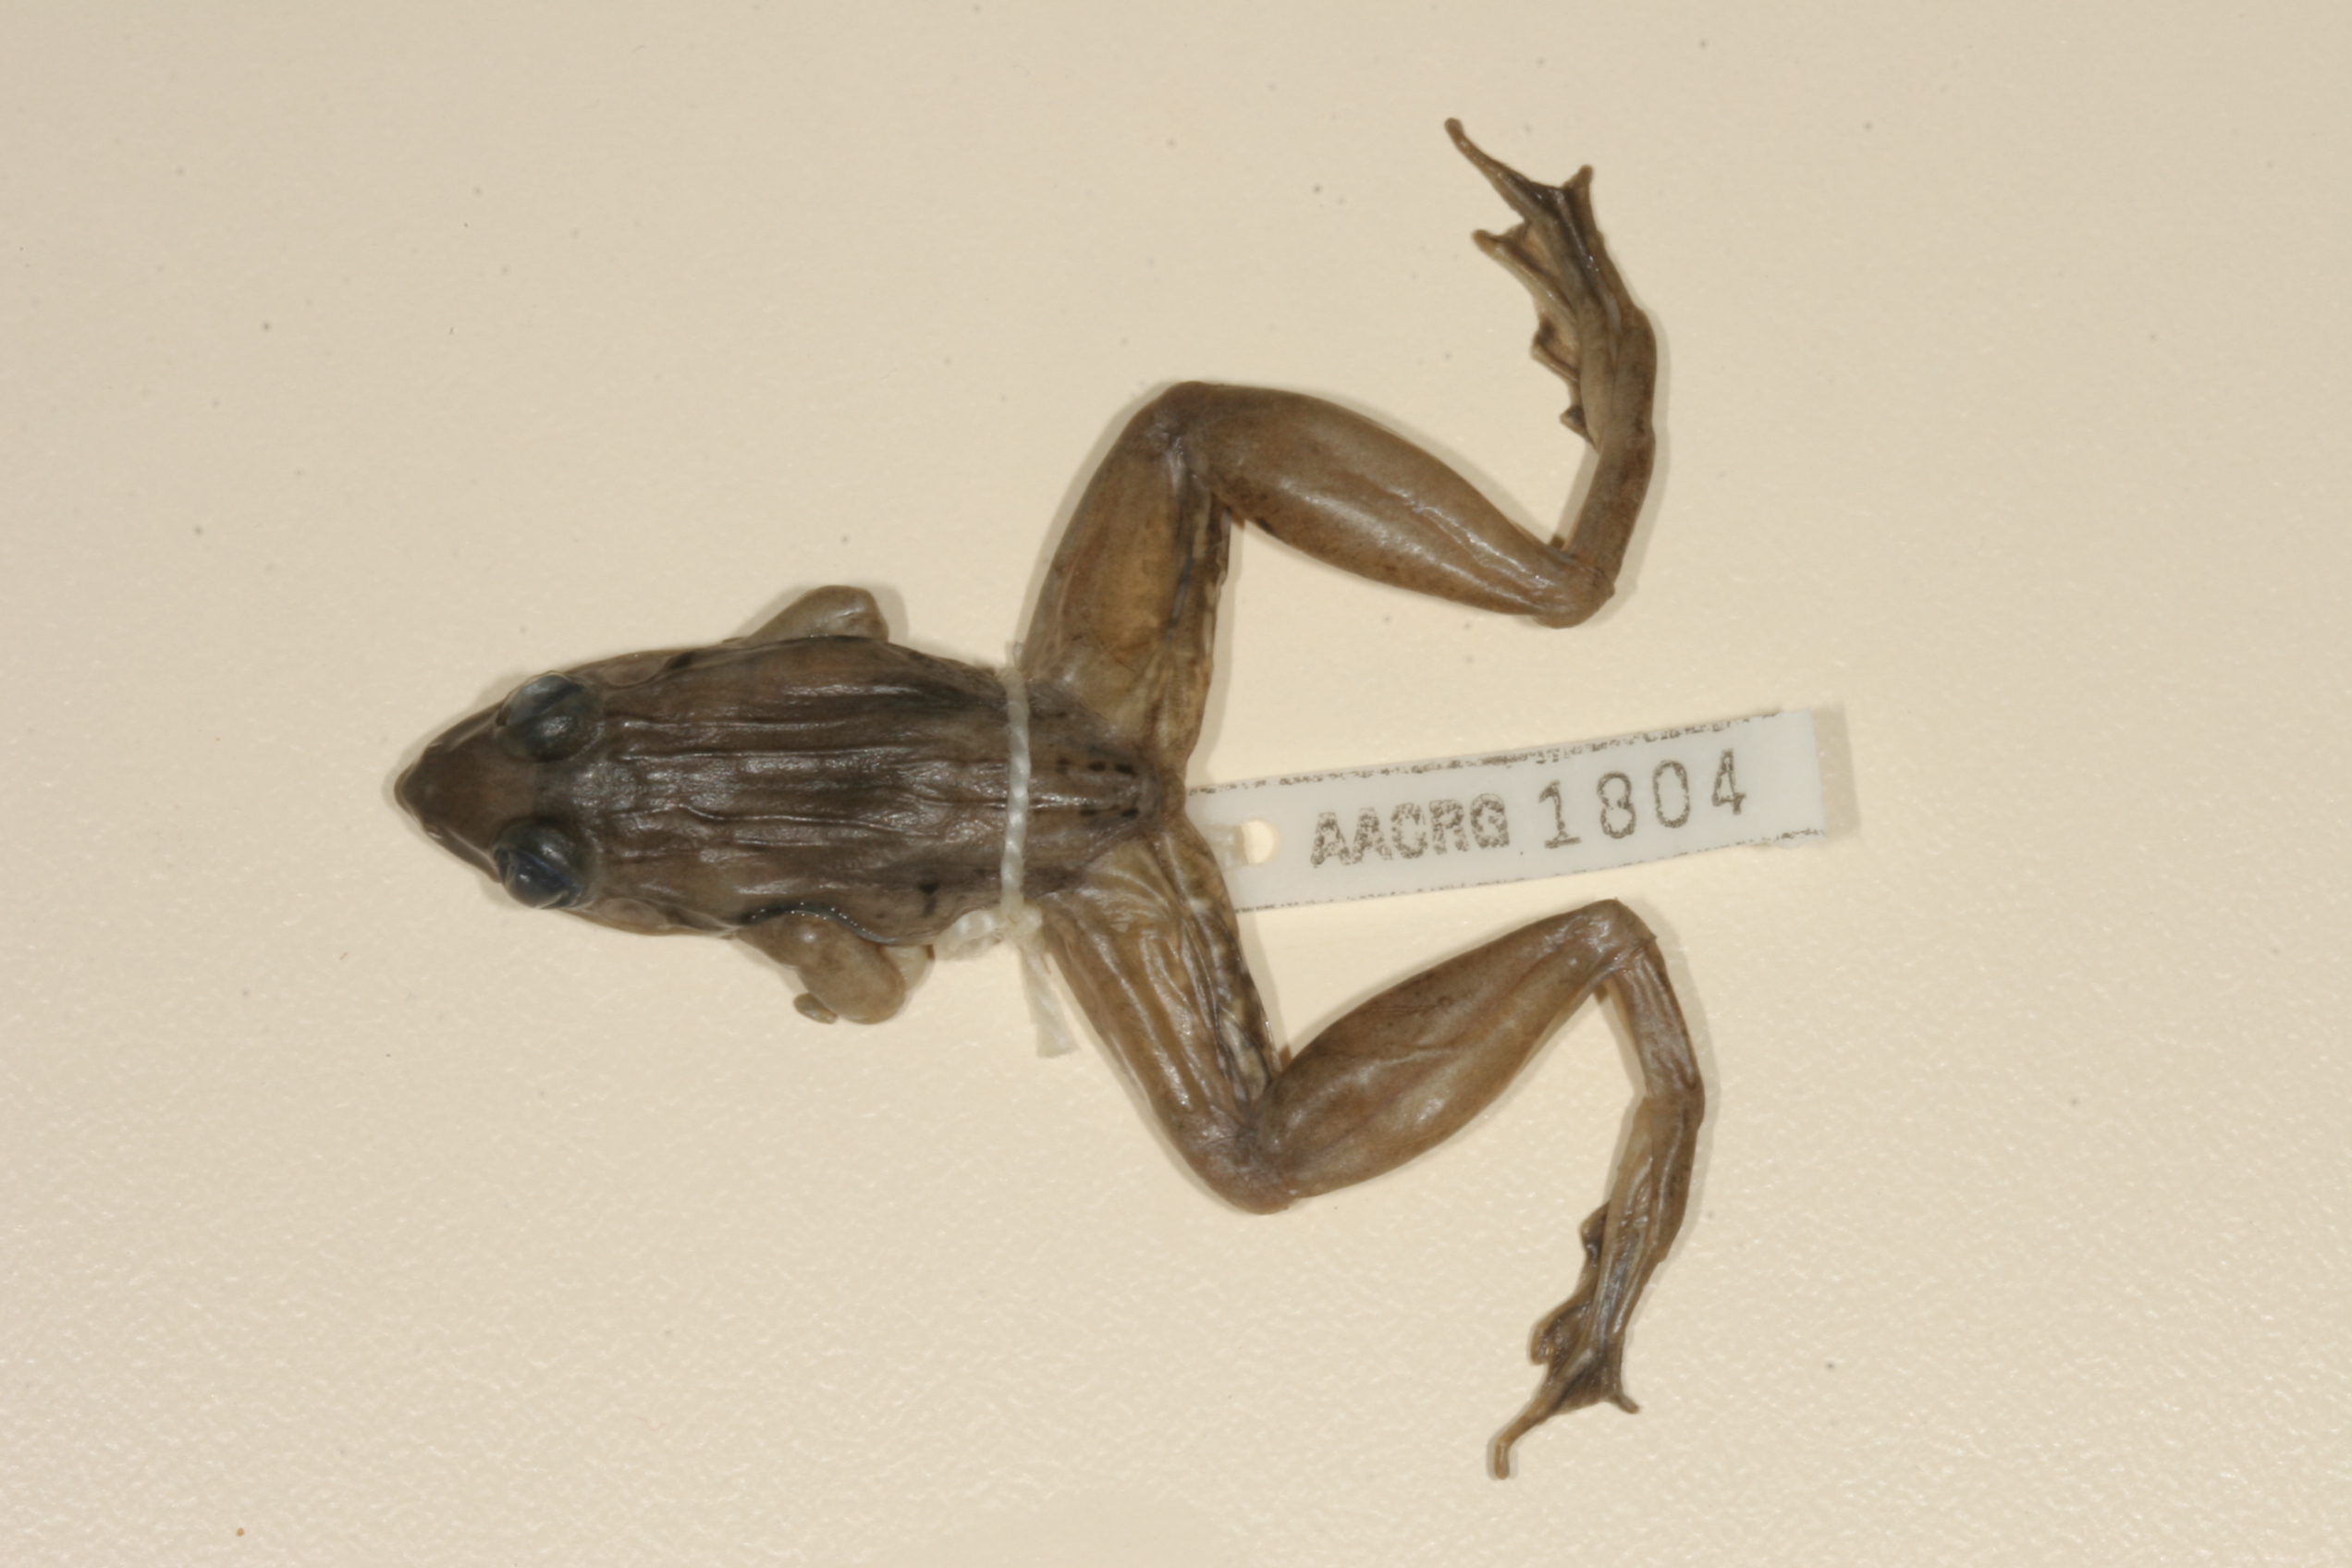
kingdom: Animalia
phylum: Chordata
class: Amphibia
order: Anura
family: Ptychadenidae
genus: Ptychadena
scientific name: Ptychadena anchietae
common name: Anchieta's ridged frog
